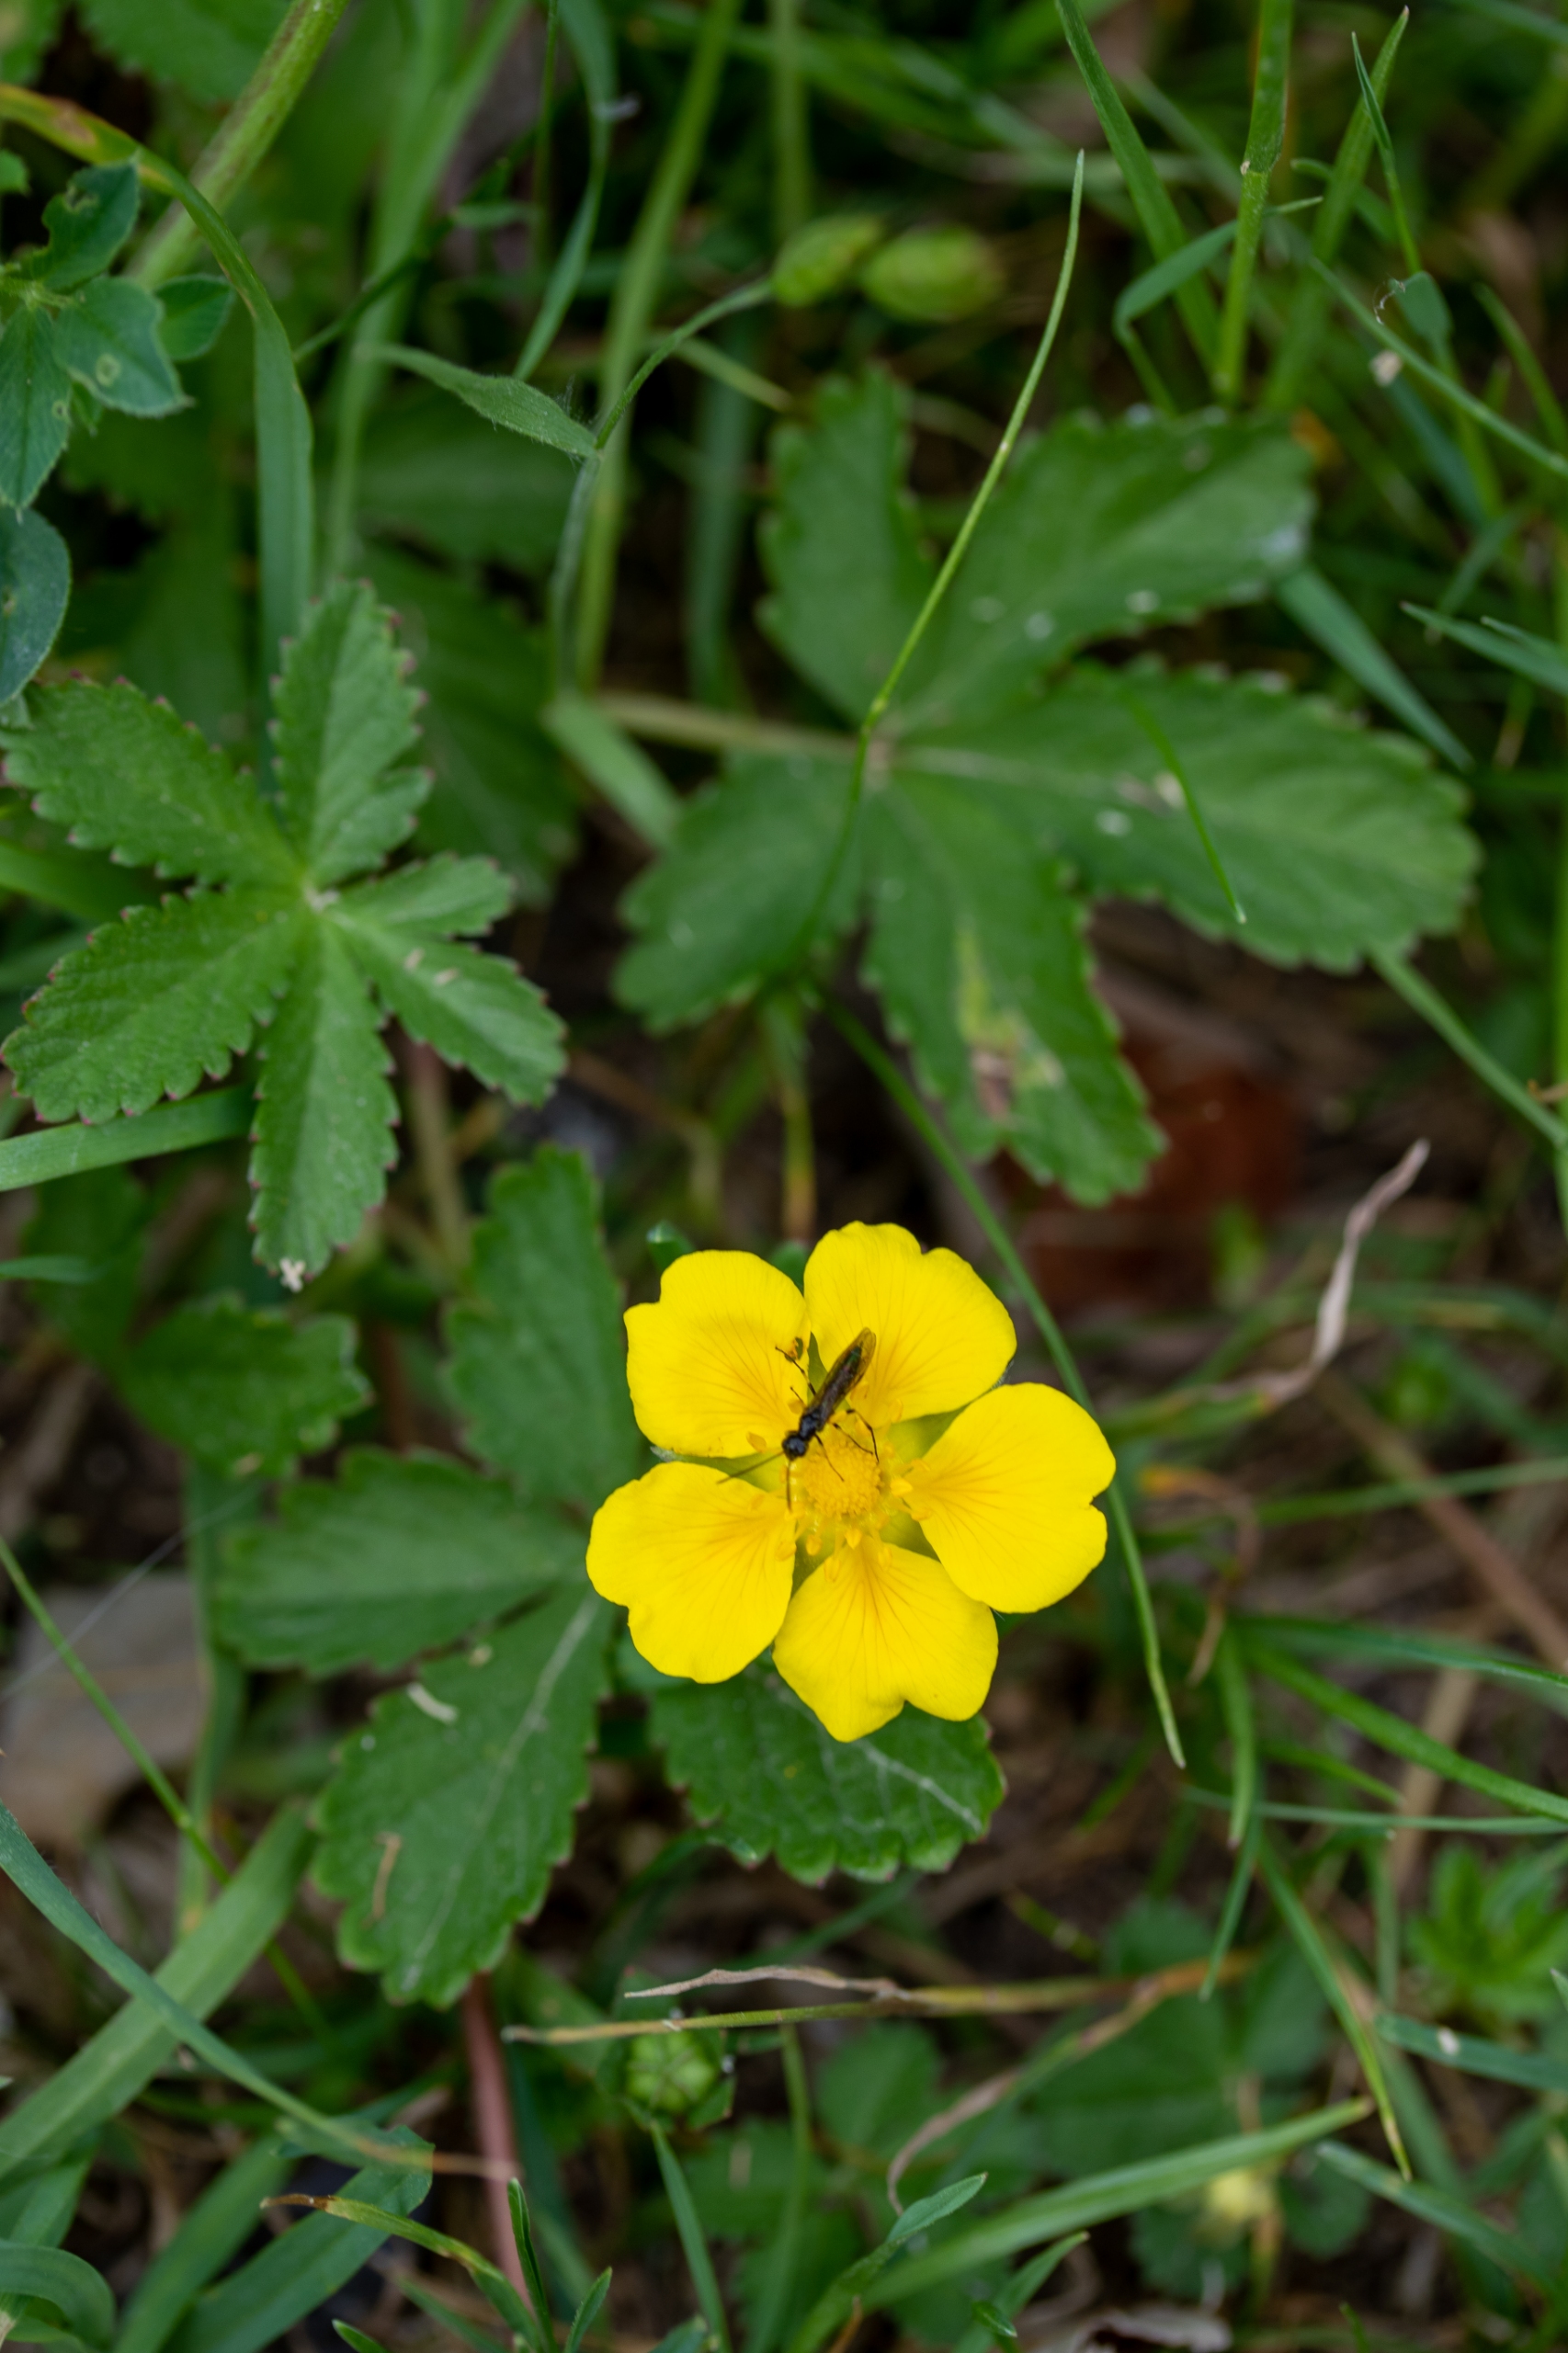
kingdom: Plantae
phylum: Tracheophyta
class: Magnoliopsida
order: Rosales
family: Rosaceae
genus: Potentilla
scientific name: Potentilla reptans
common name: Krybende potentil
